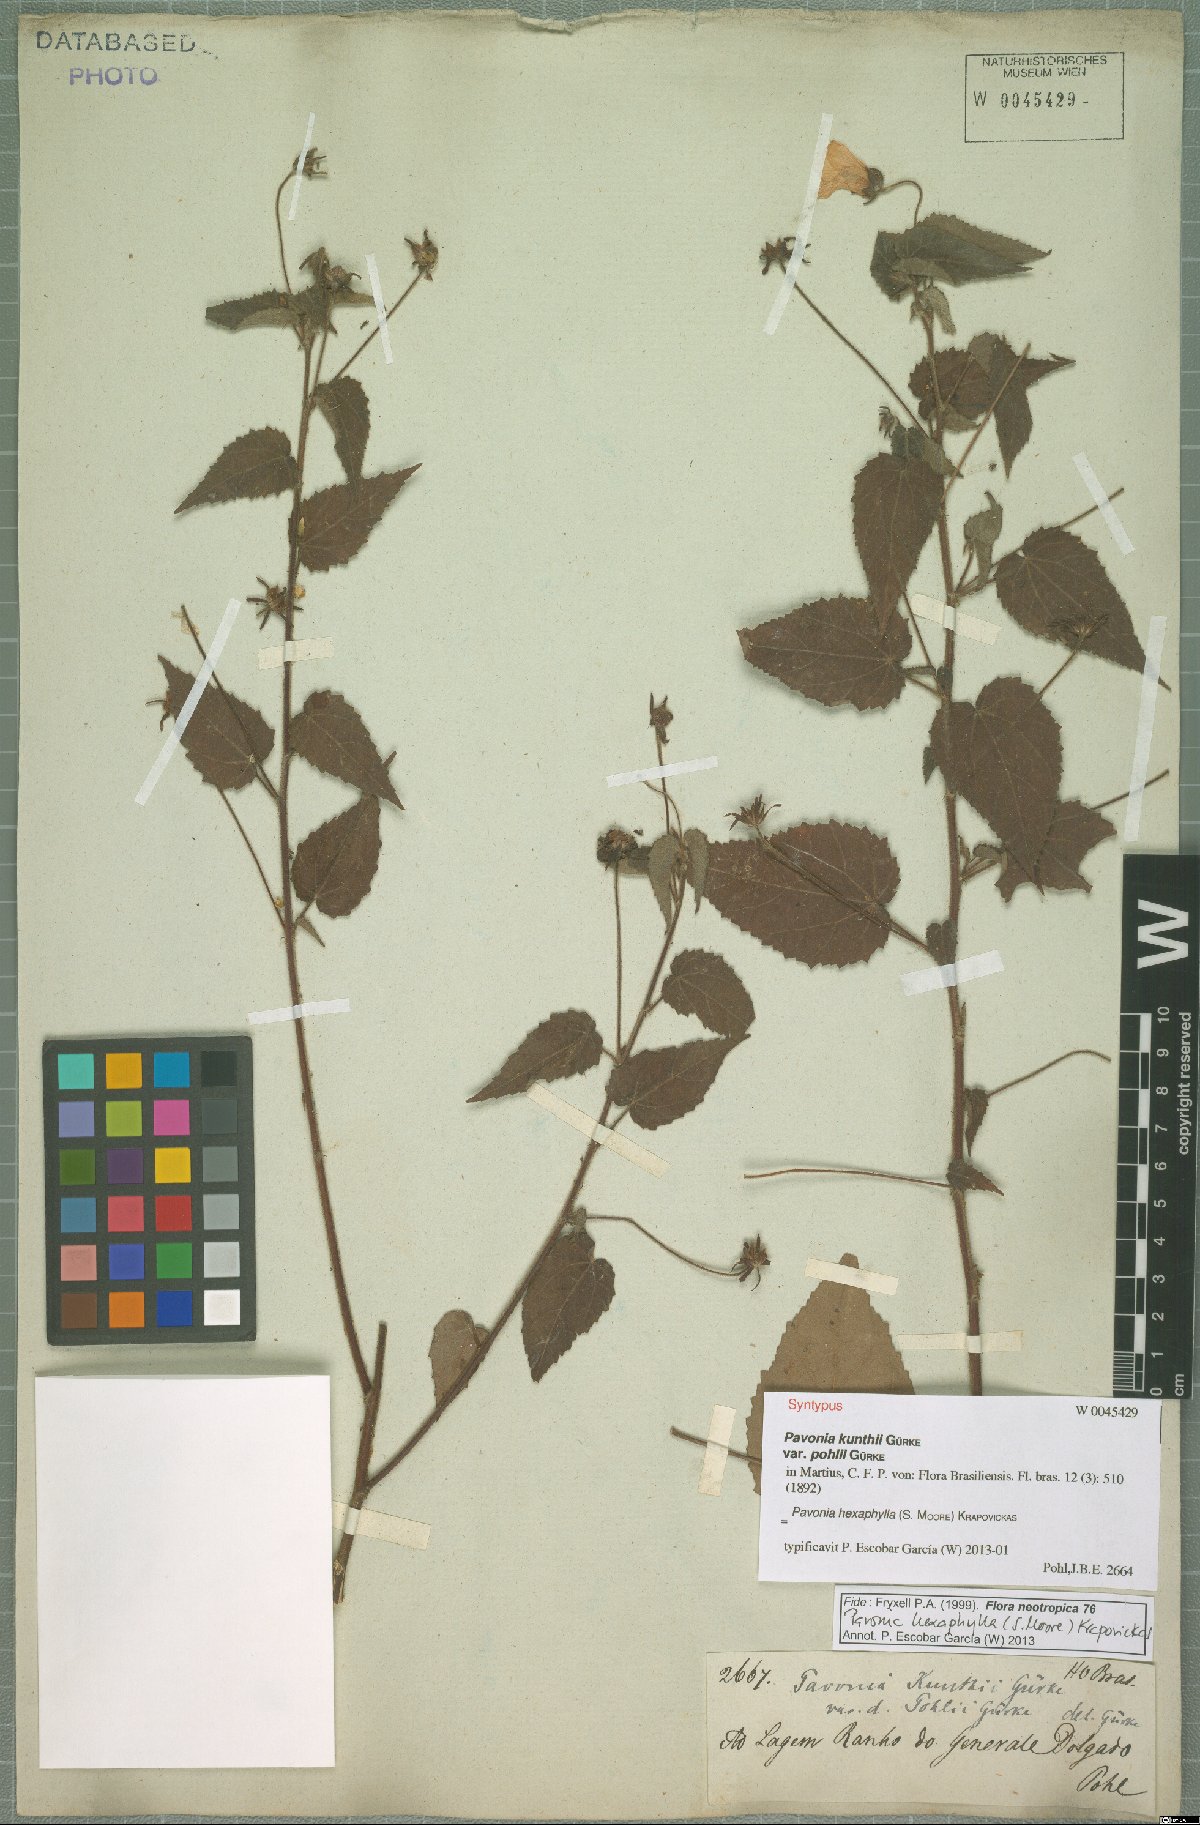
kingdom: Plantae
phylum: Tracheophyta
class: Magnoliopsida
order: Malvales
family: Malvaceae
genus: Pavonia
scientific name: Pavonia hexaphylla
